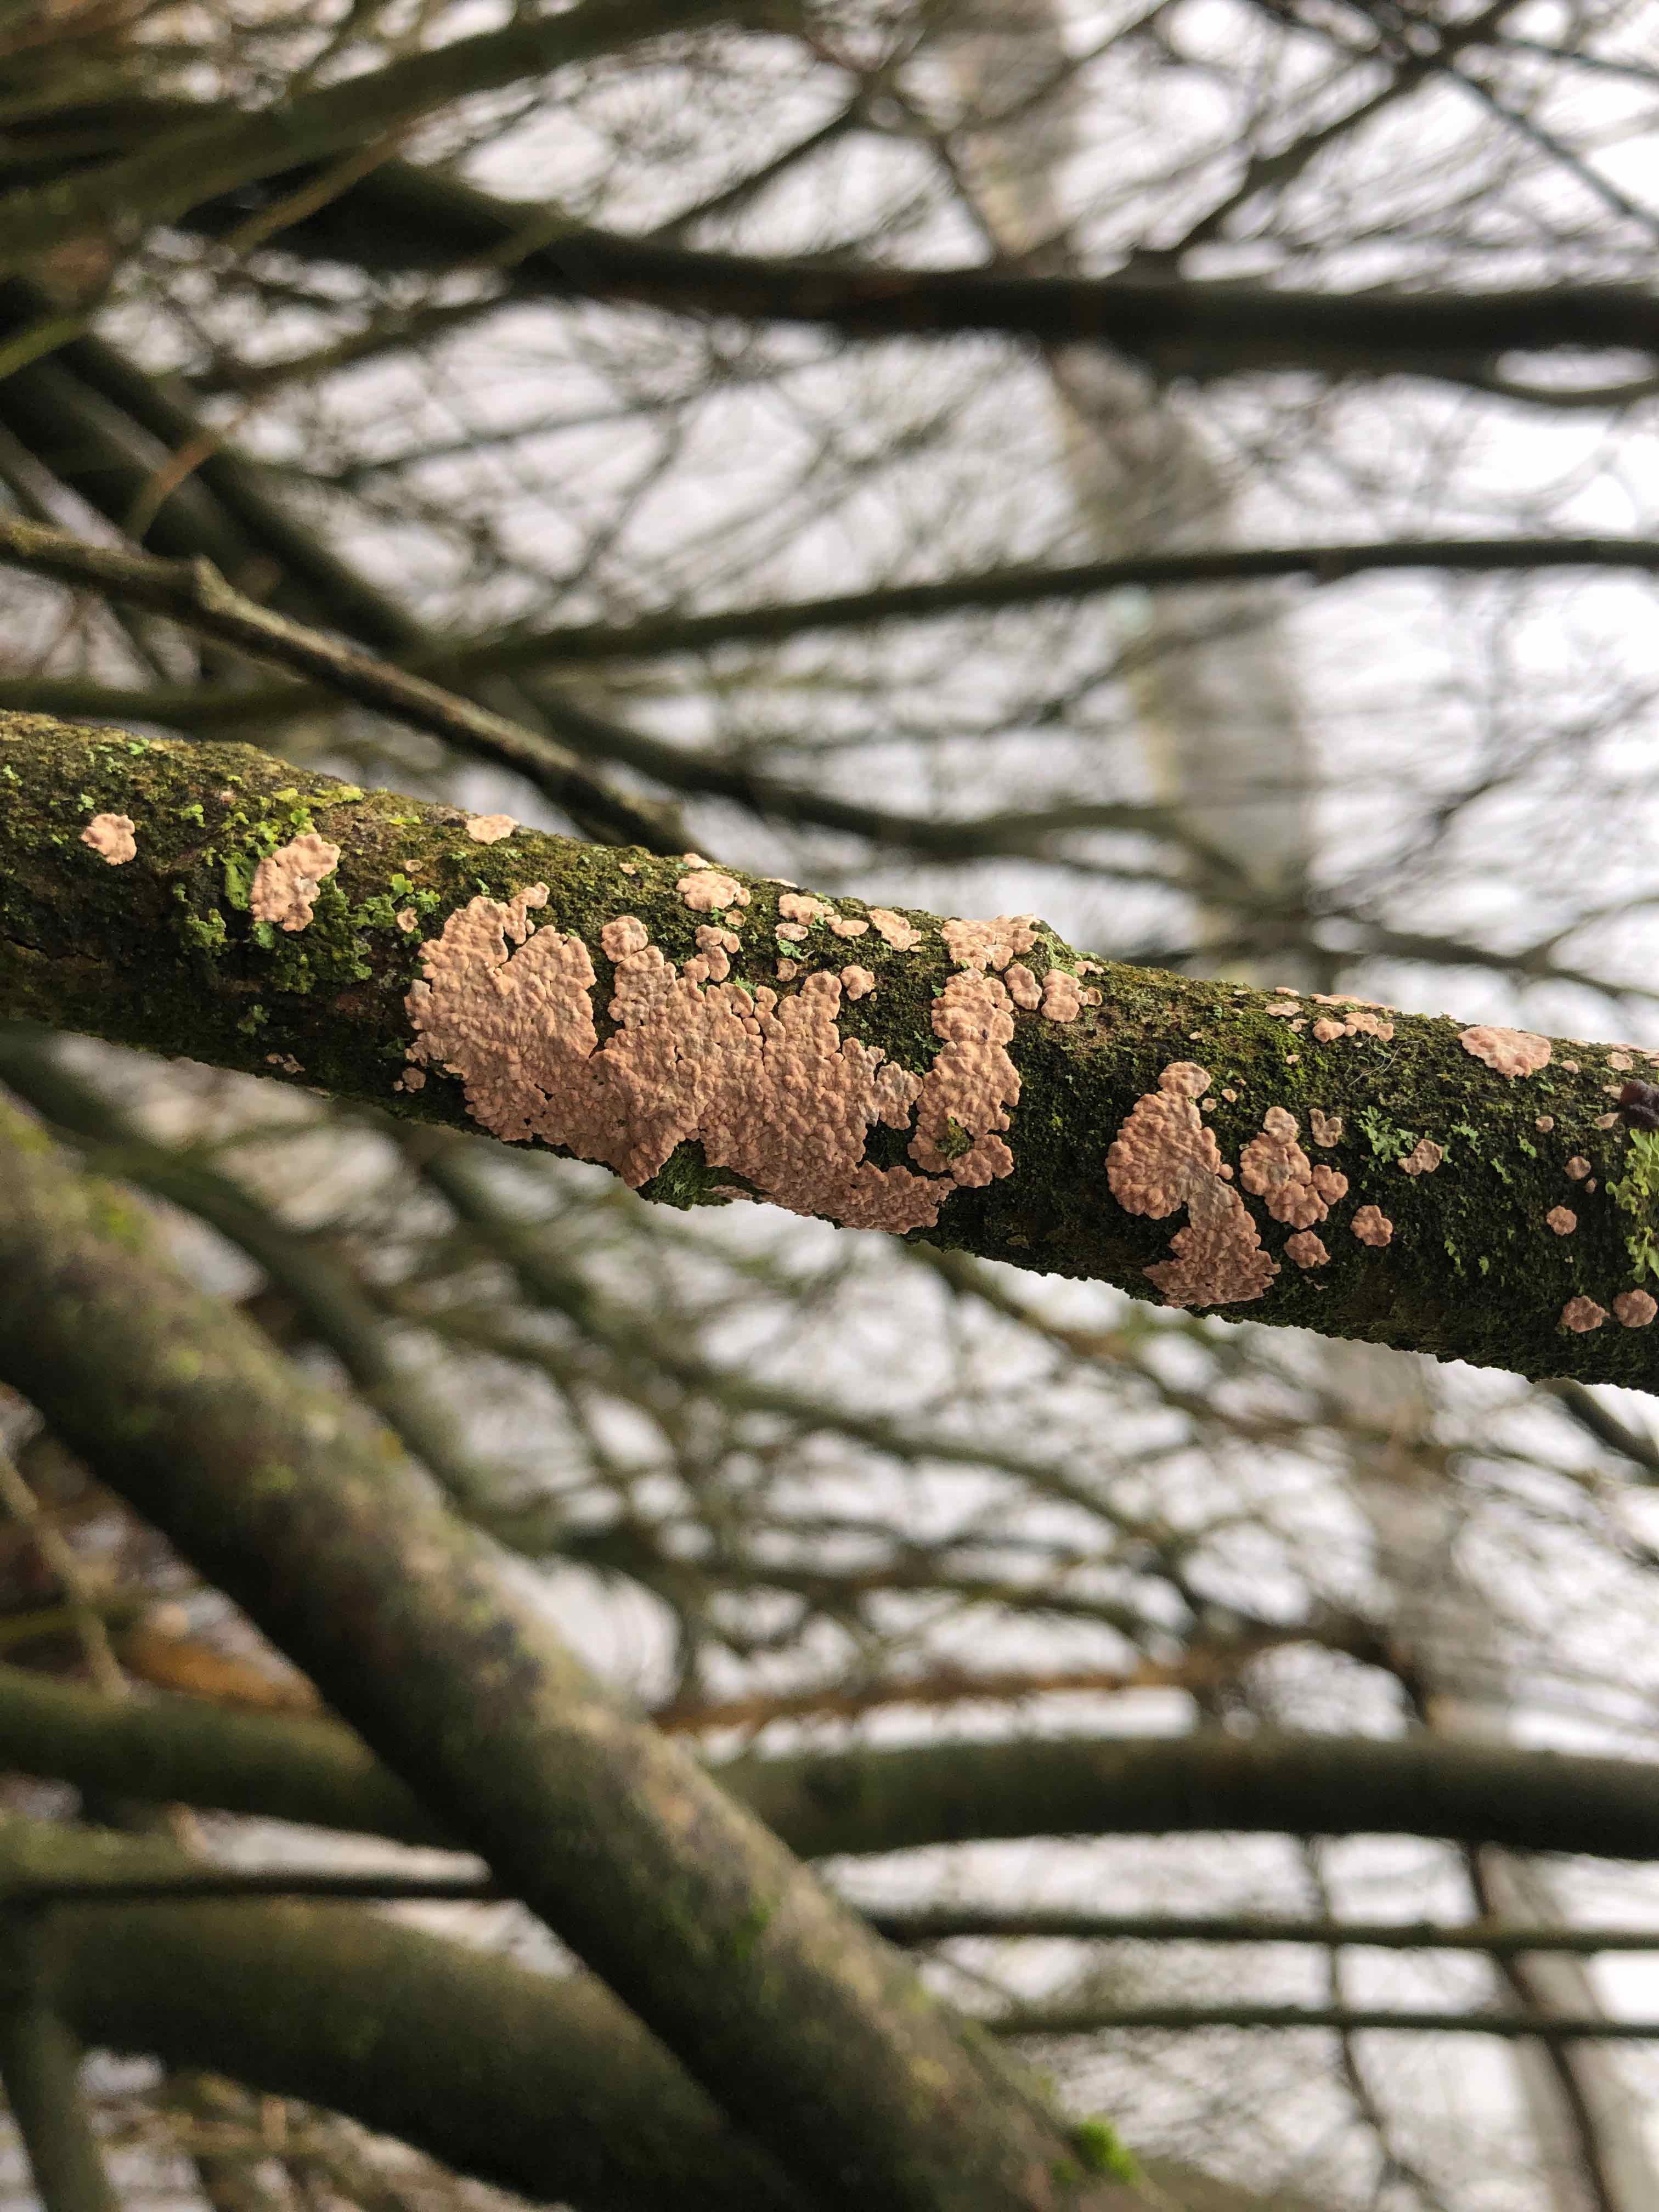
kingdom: Fungi
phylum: Basidiomycota
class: Agaricomycetes
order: Corticiales
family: Corticiaceae
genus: Corticium
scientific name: Corticium roseum
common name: rosa barkskind
